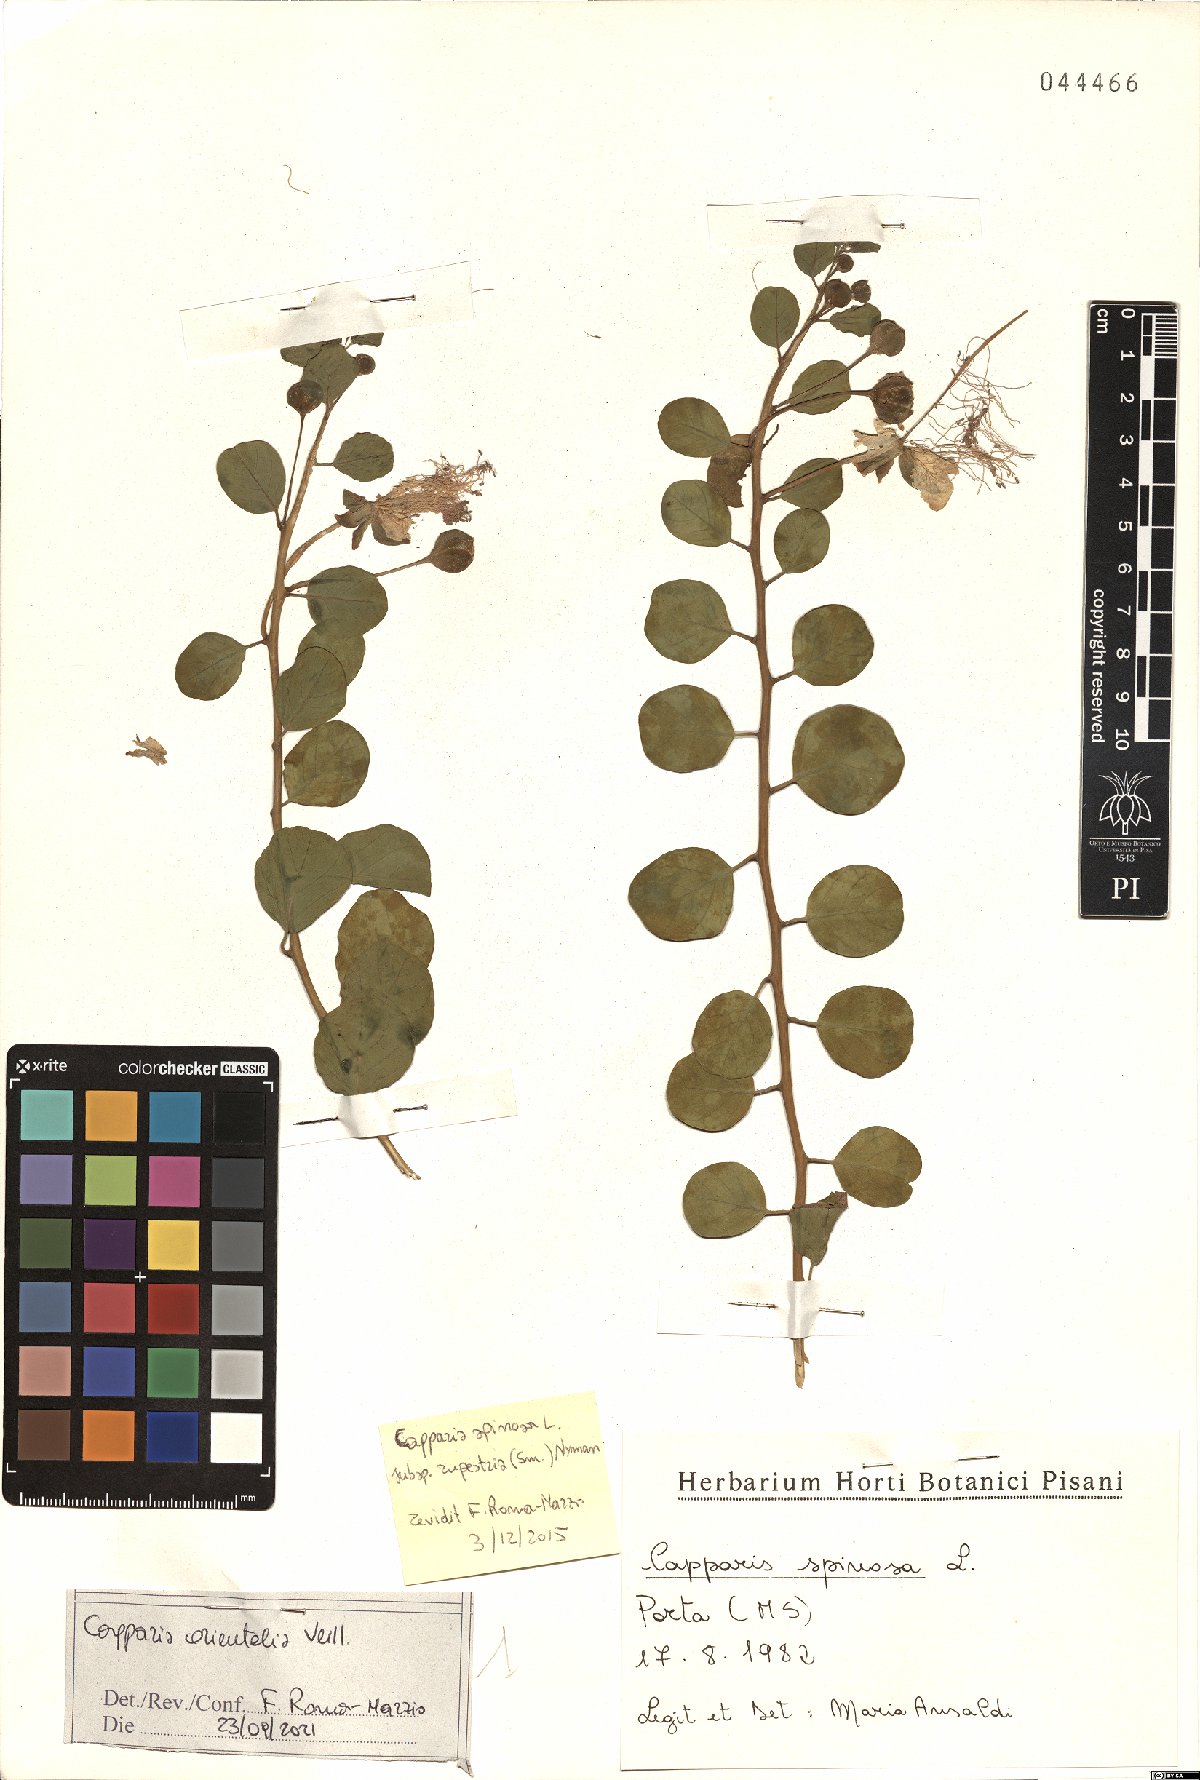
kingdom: Plantae
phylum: Tracheophyta
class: Magnoliopsida
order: Brassicales
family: Capparaceae
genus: Capparis
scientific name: Capparis spinosa
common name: Caper
